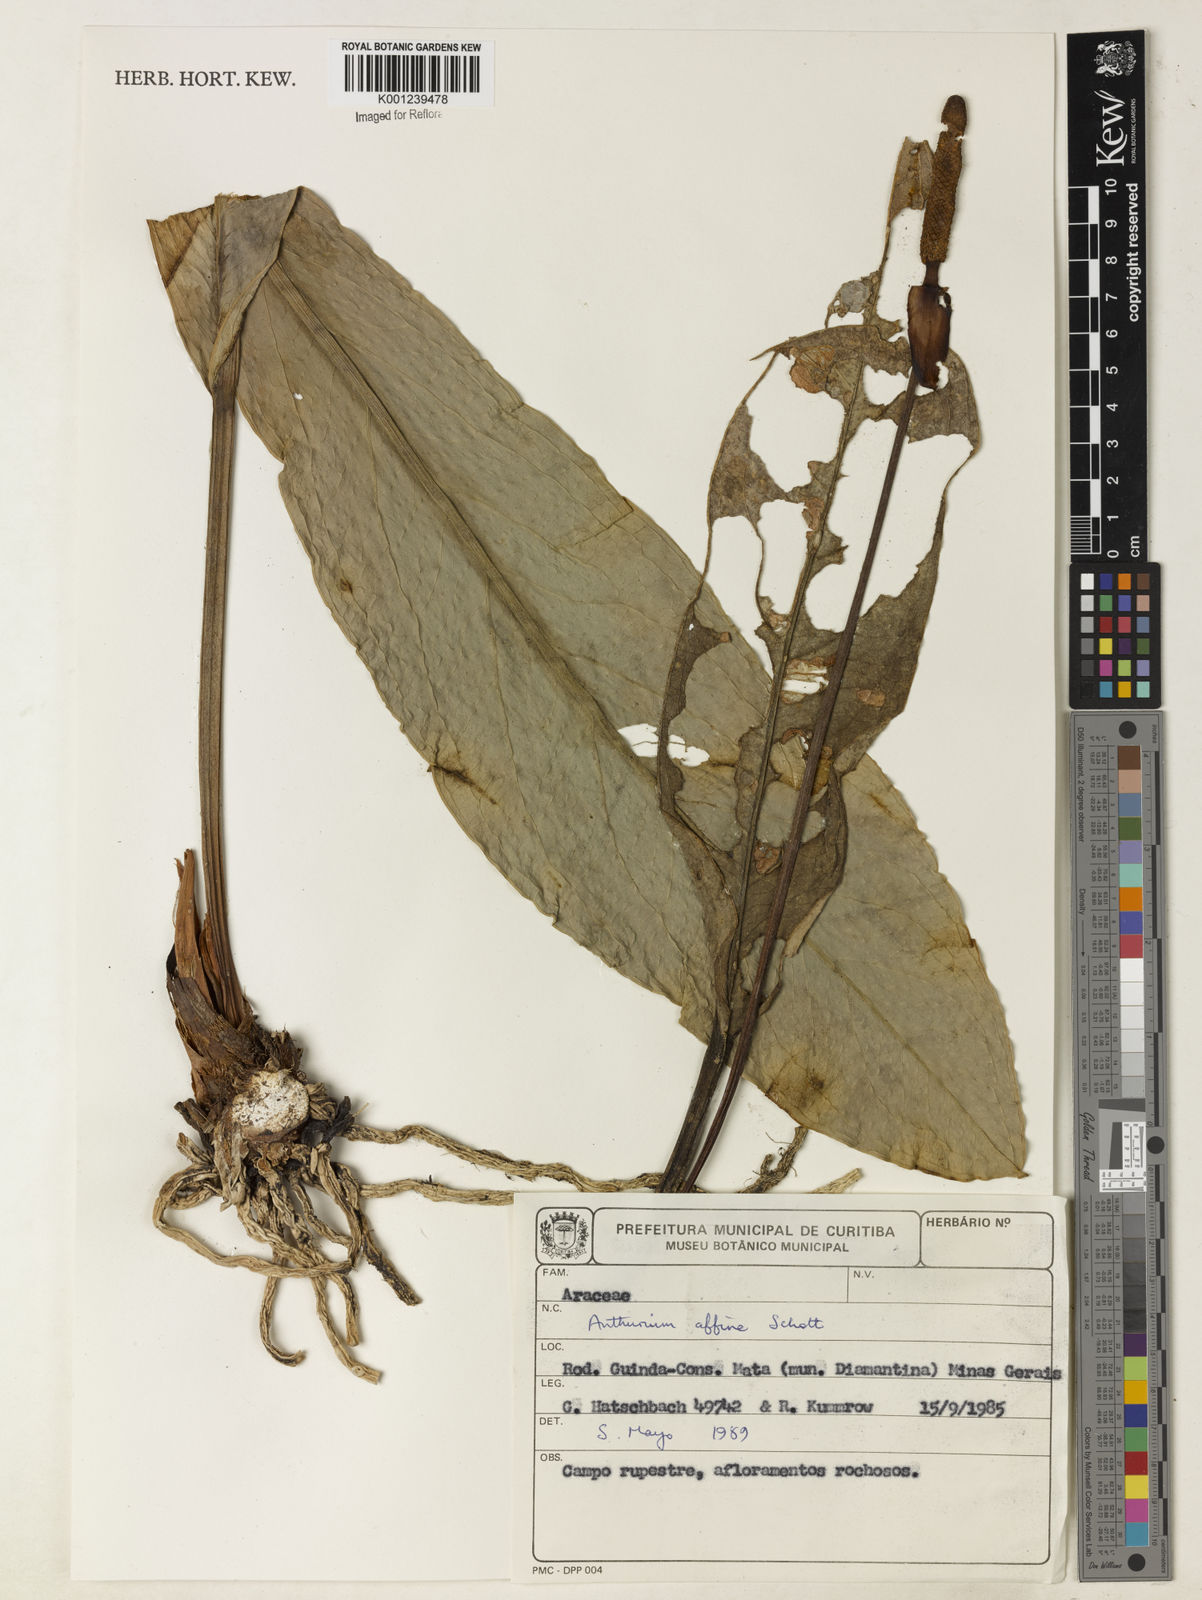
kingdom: Plantae
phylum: Tracheophyta
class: Liliopsida
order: Alismatales
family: Araceae
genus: Anthurium
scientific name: Anthurium affine
